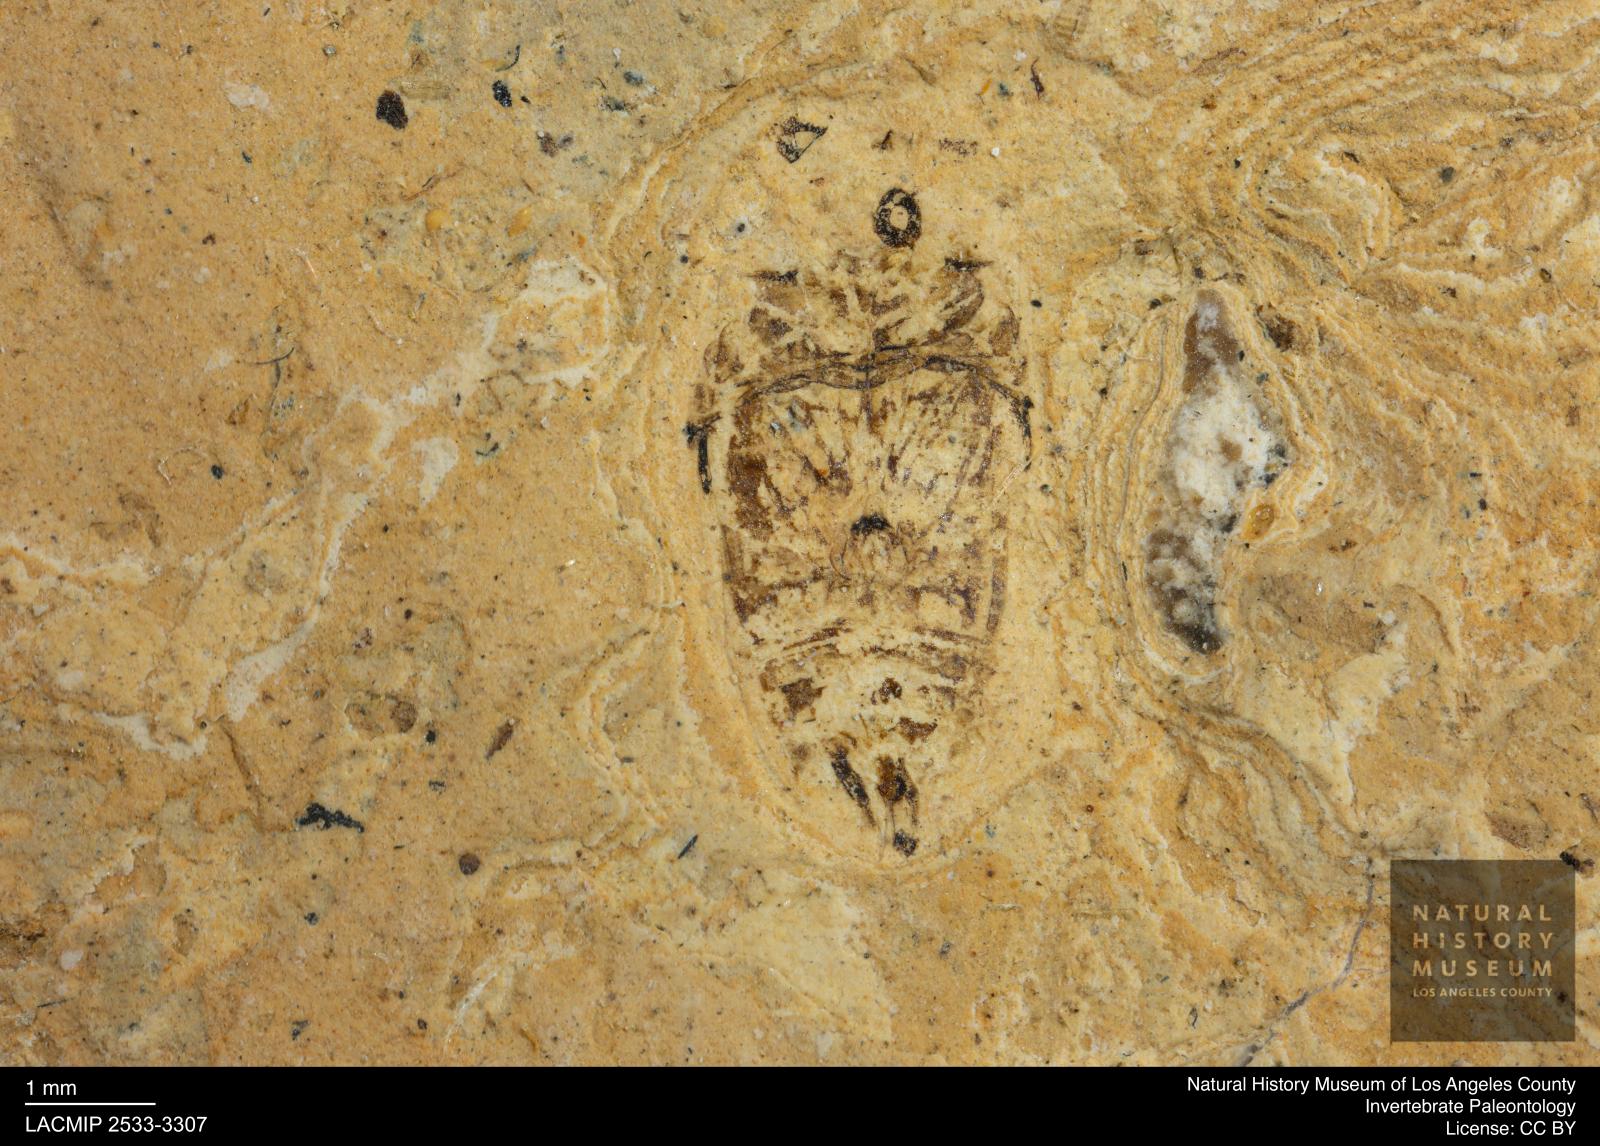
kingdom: Animalia
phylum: Arthropoda
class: Insecta
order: Coleoptera
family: Dytiscidae
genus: Laccophilus
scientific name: Laccophilus Palaeogyrinus strigatus
